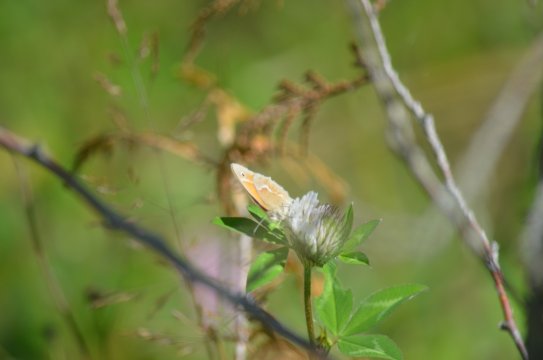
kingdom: Animalia
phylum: Arthropoda
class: Insecta
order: Lepidoptera
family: Nymphalidae
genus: Coenonympha
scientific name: Coenonympha tullia
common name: Large Heath
